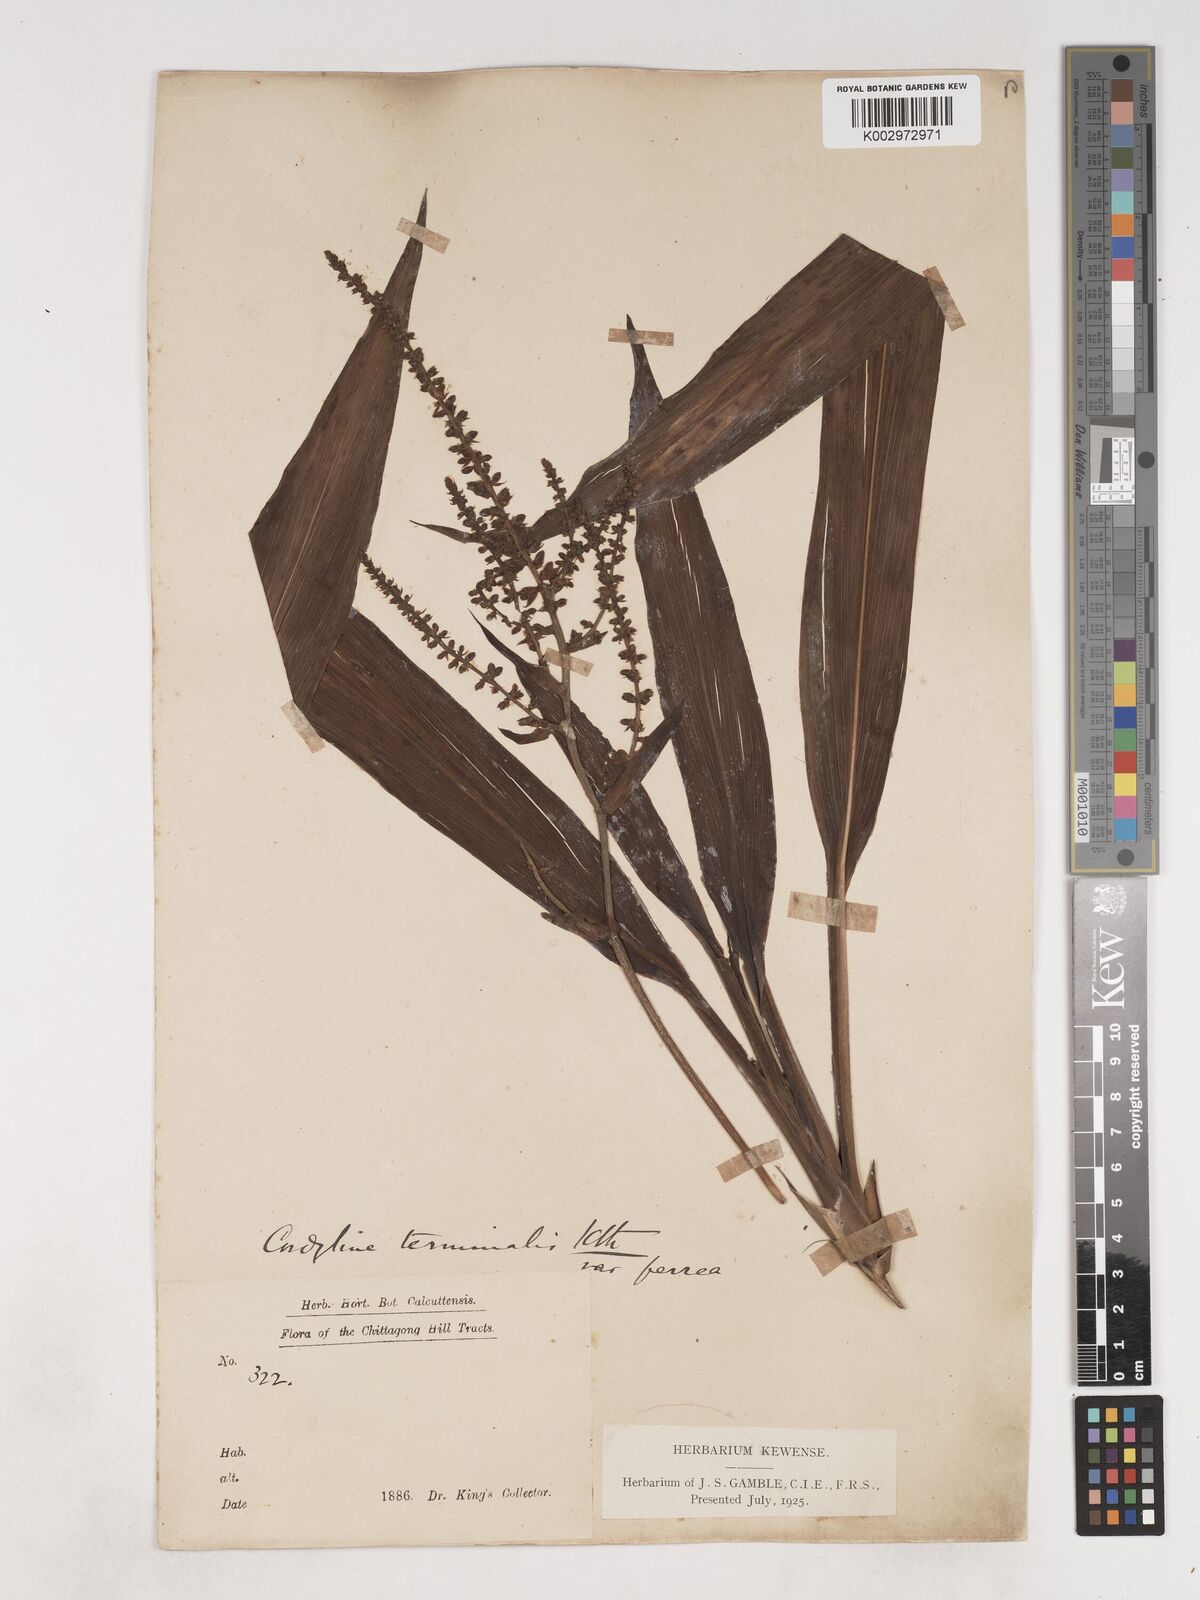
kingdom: Plantae
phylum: Tracheophyta
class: Liliopsida
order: Asparagales
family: Asparagaceae
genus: Cordyline
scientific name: Cordyline fruticosa
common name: Good-luck-plant
